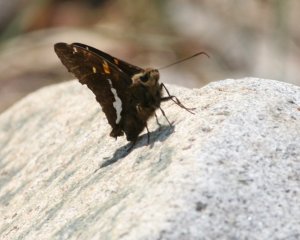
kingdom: Animalia
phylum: Arthropoda
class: Insecta
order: Lepidoptera
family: Hesperiidae
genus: Epargyreus
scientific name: Epargyreus clarus
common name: Silver-spotted Skipper
